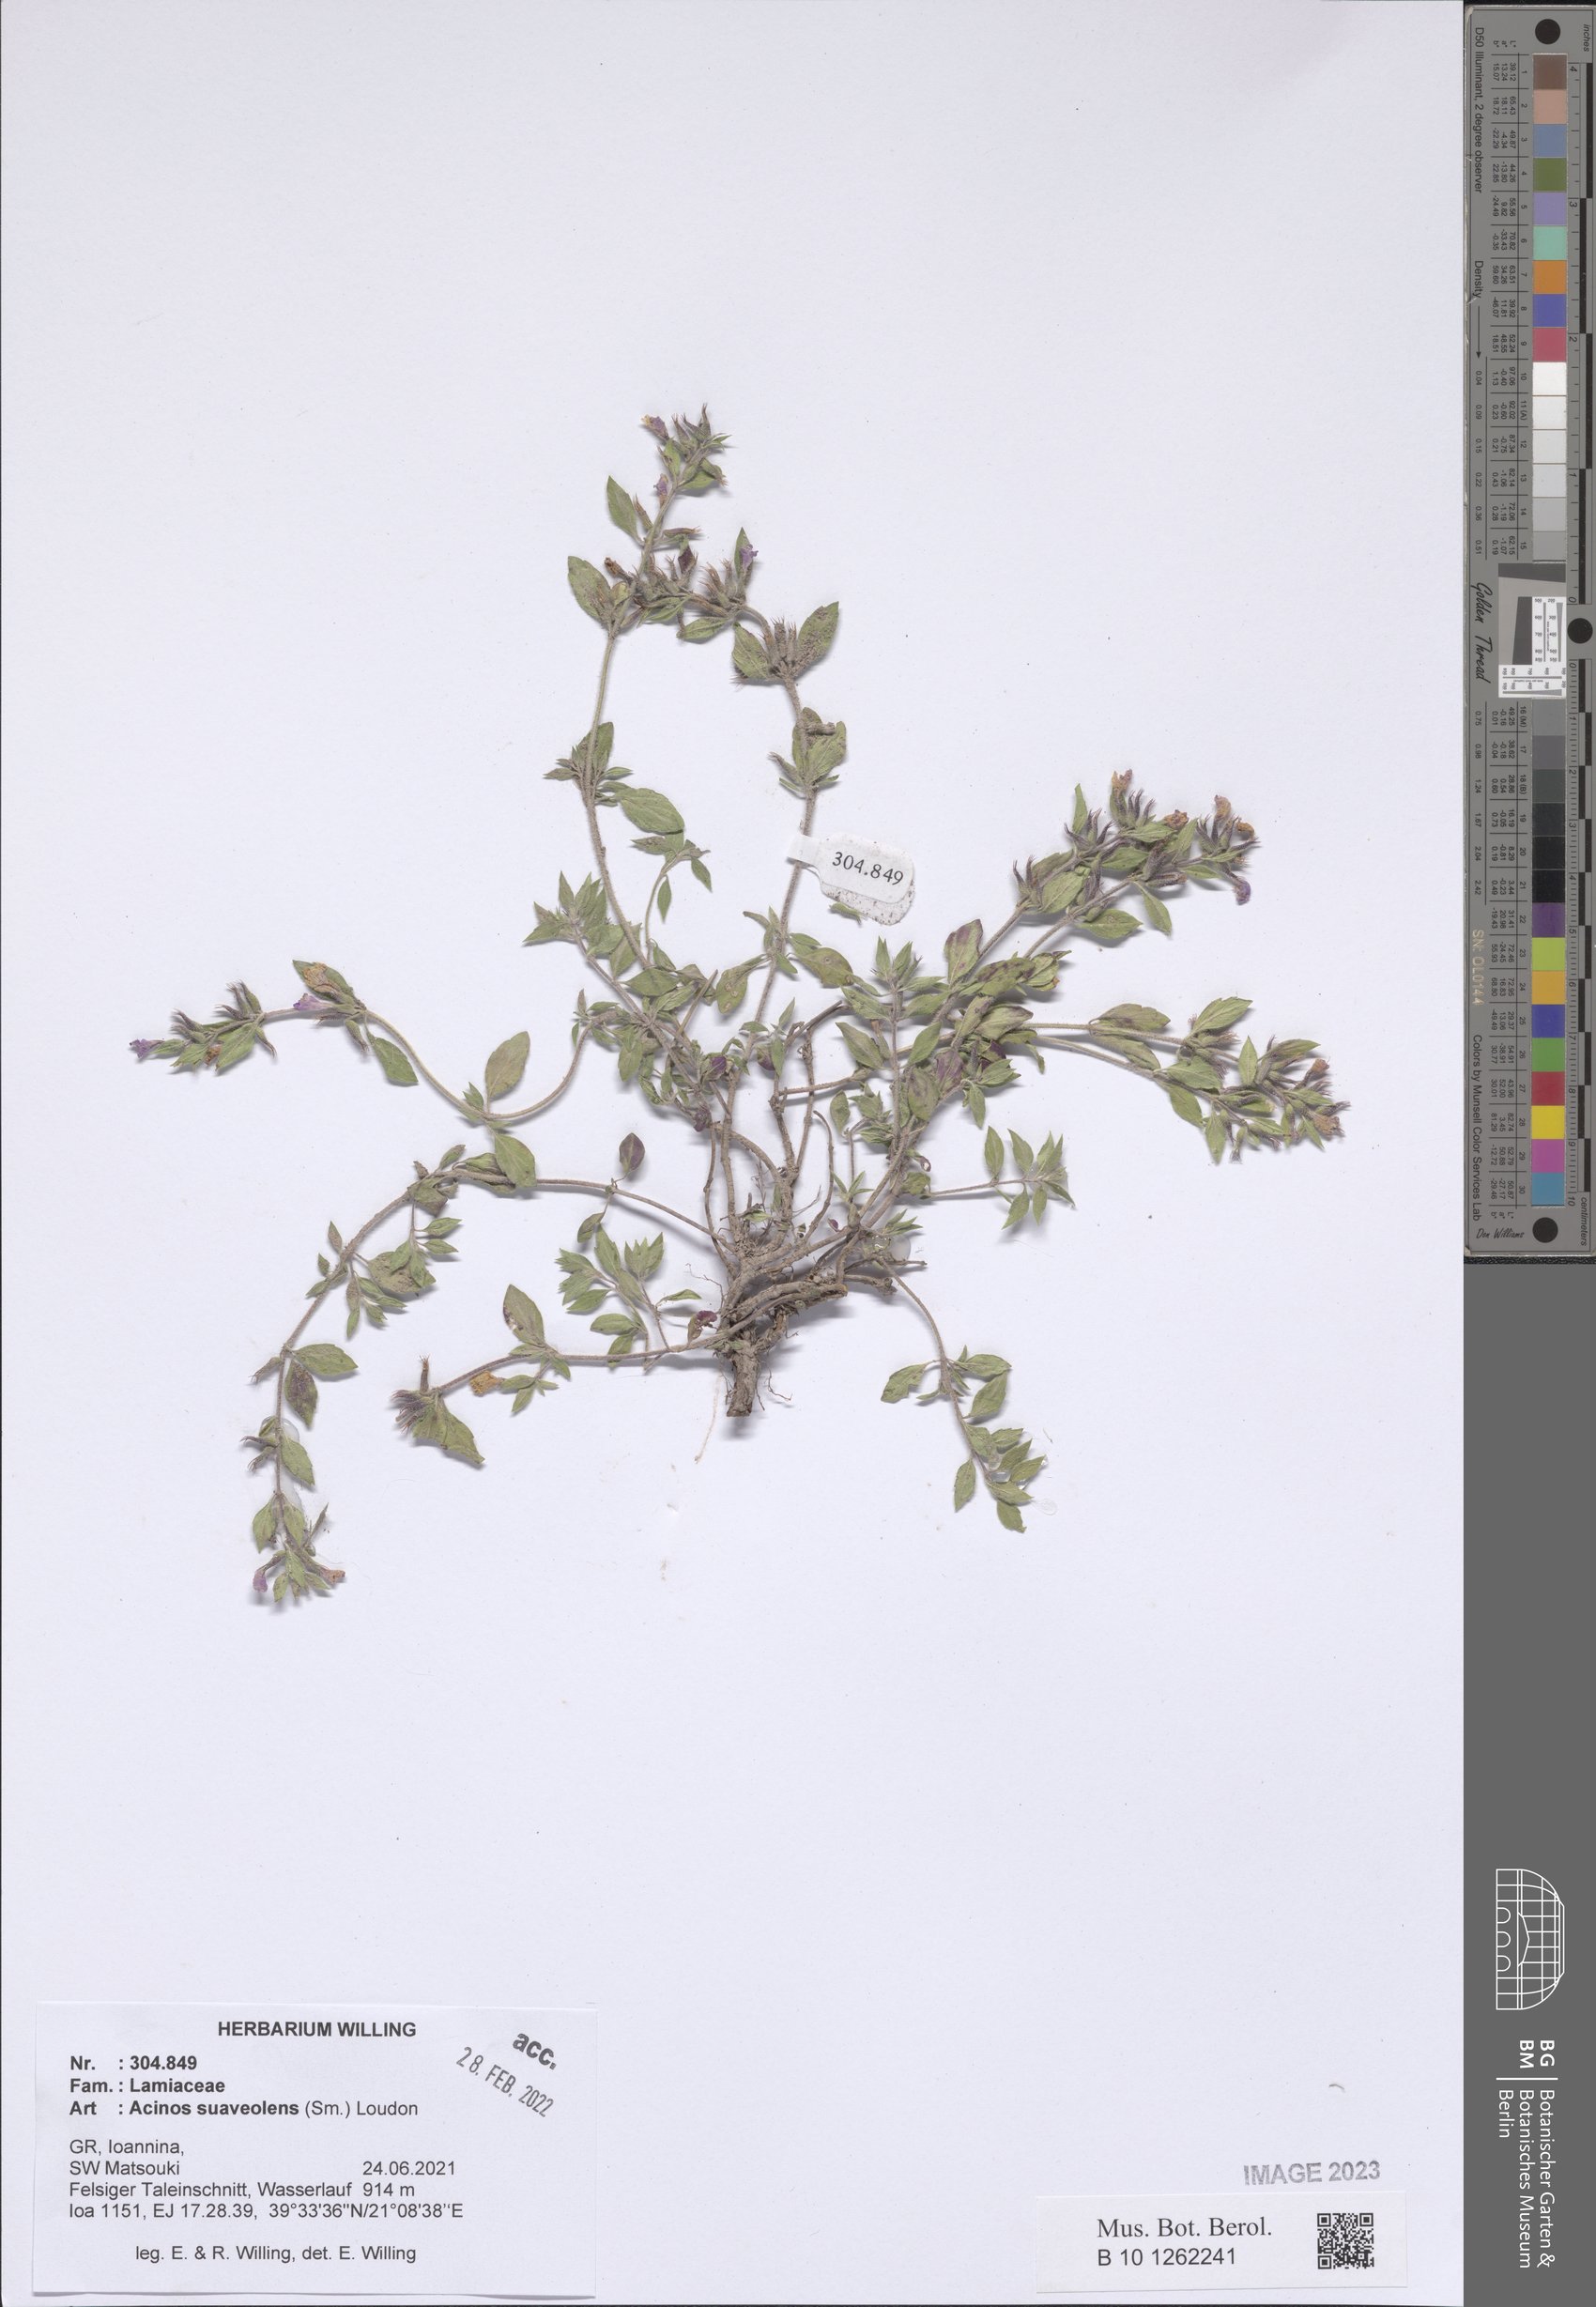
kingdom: Plantae
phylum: Tracheophyta
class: Magnoliopsida
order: Lamiales
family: Lamiaceae
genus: Clinopodium
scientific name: Clinopodium suaveolens
